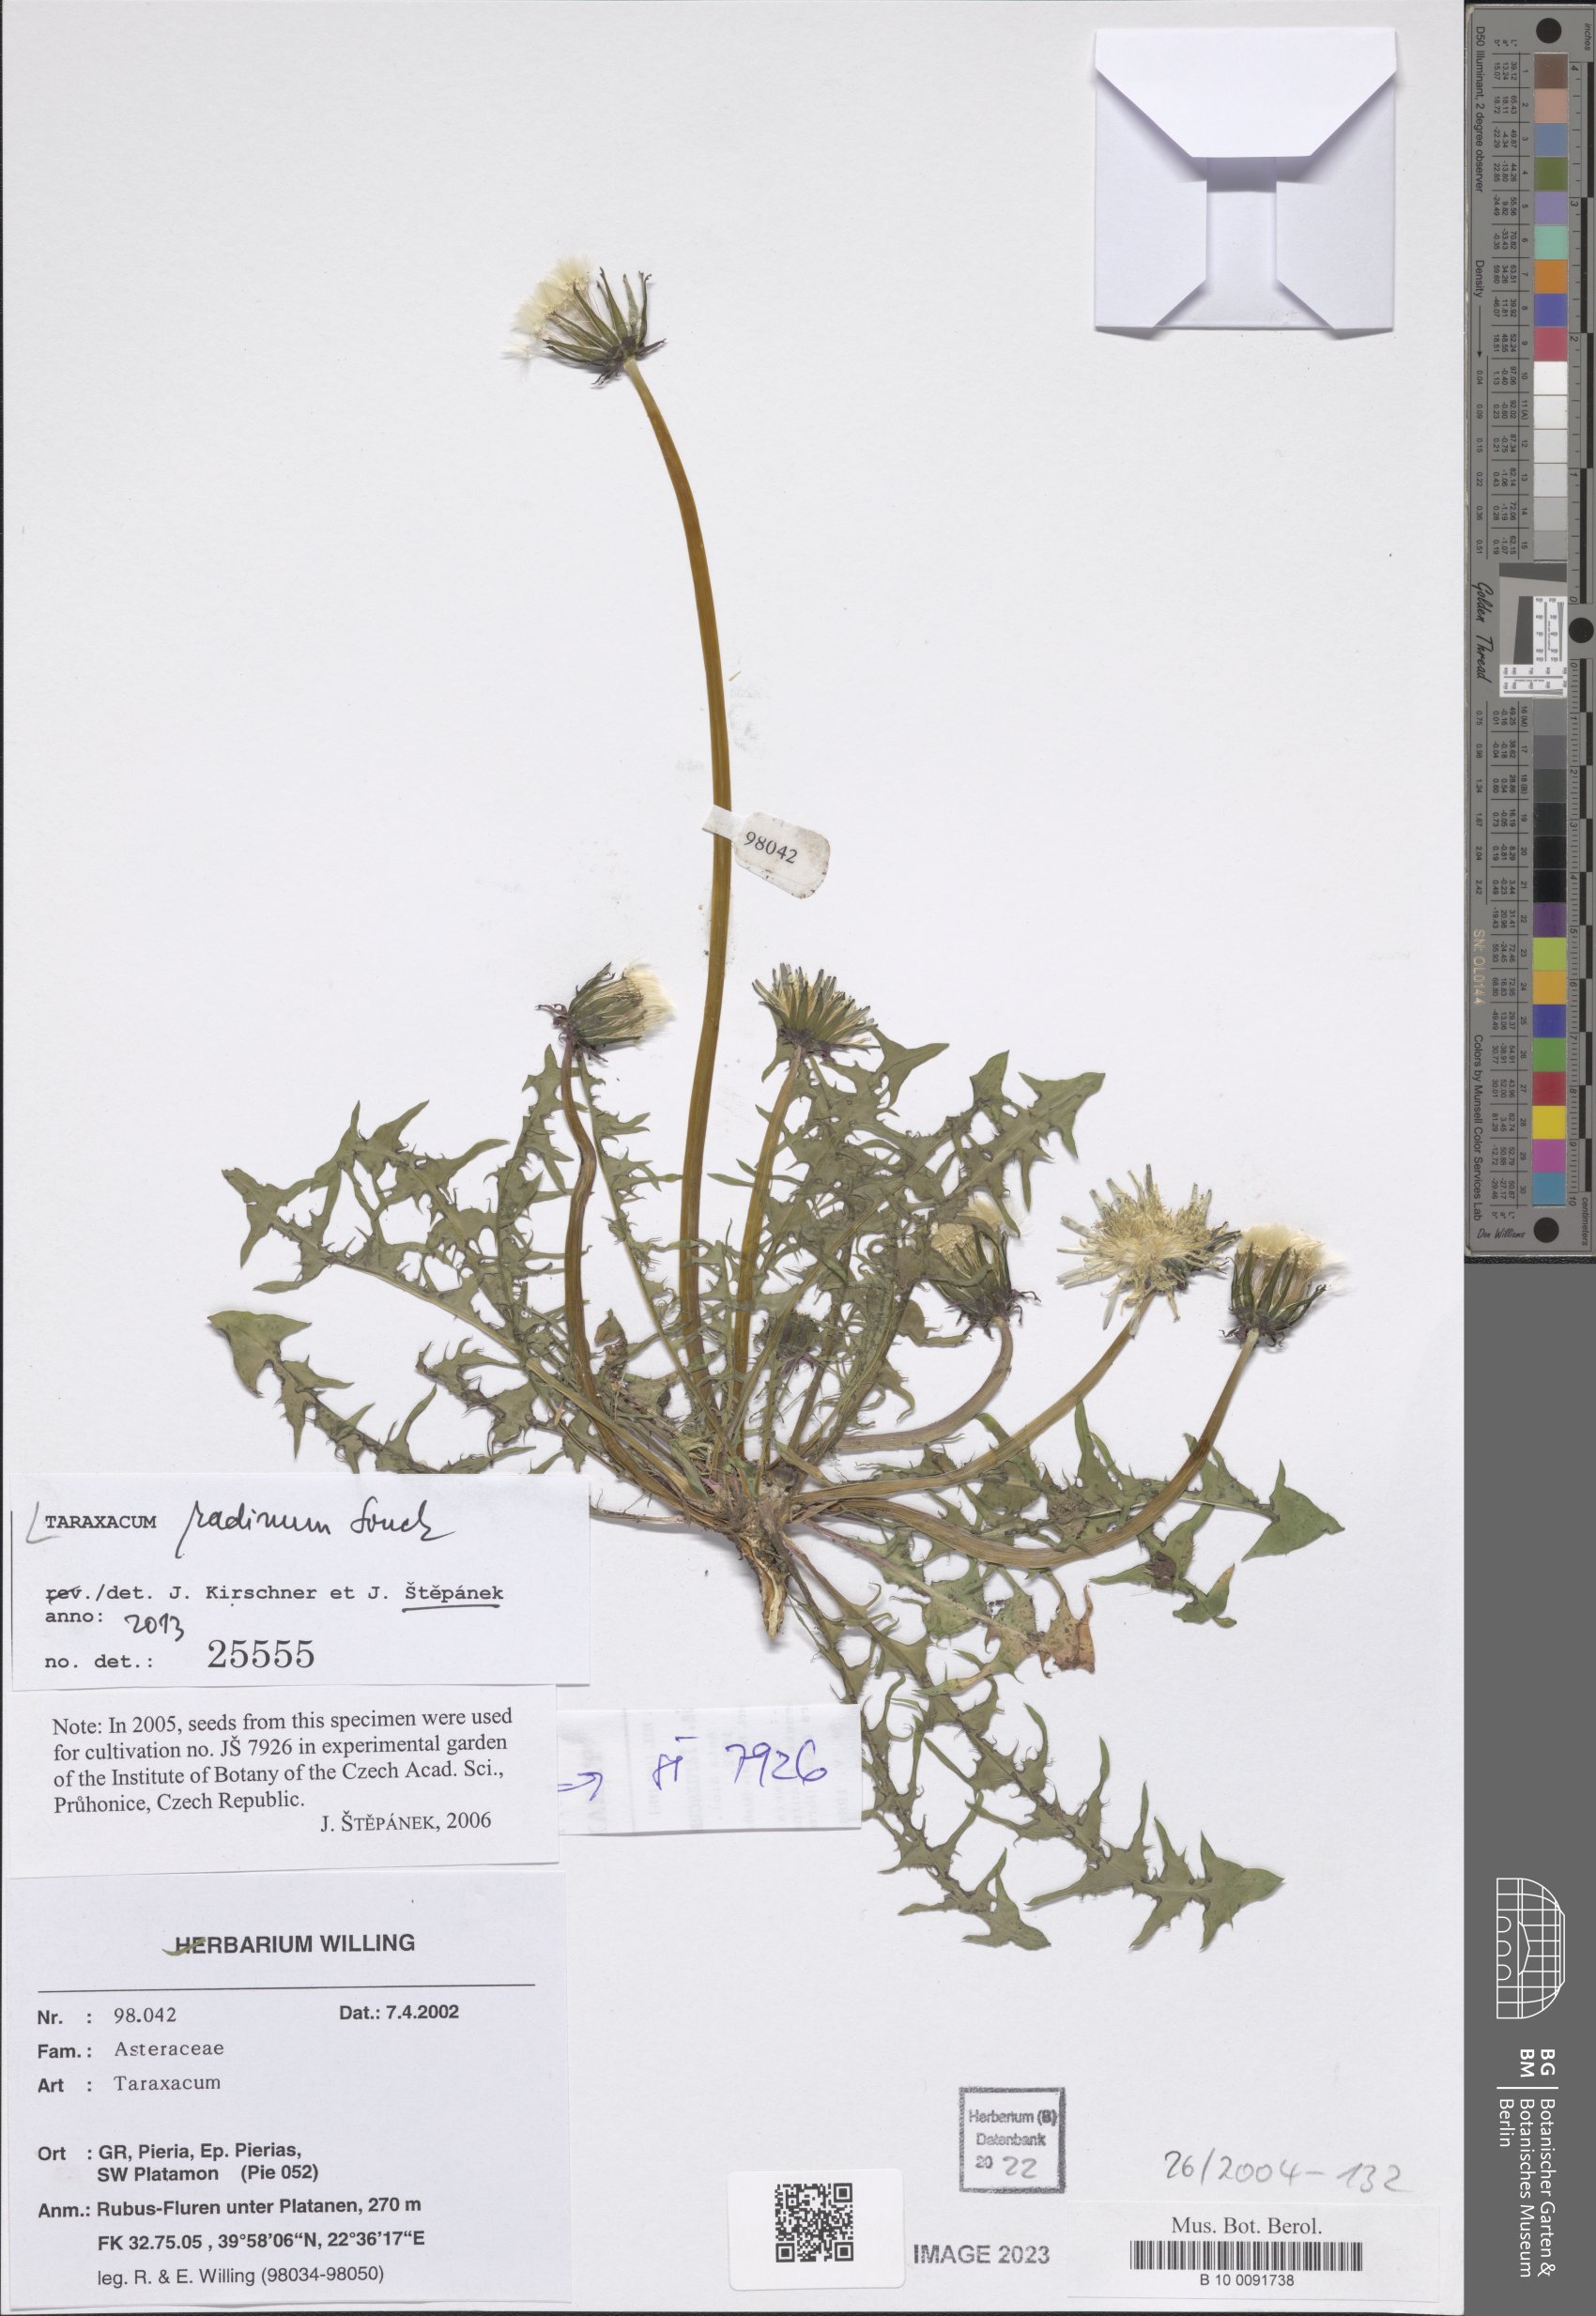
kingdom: Plantae
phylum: Tracheophyta
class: Magnoliopsida
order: Asterales
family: Asteraceae
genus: Taraxacum
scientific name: Taraxacum radinum
